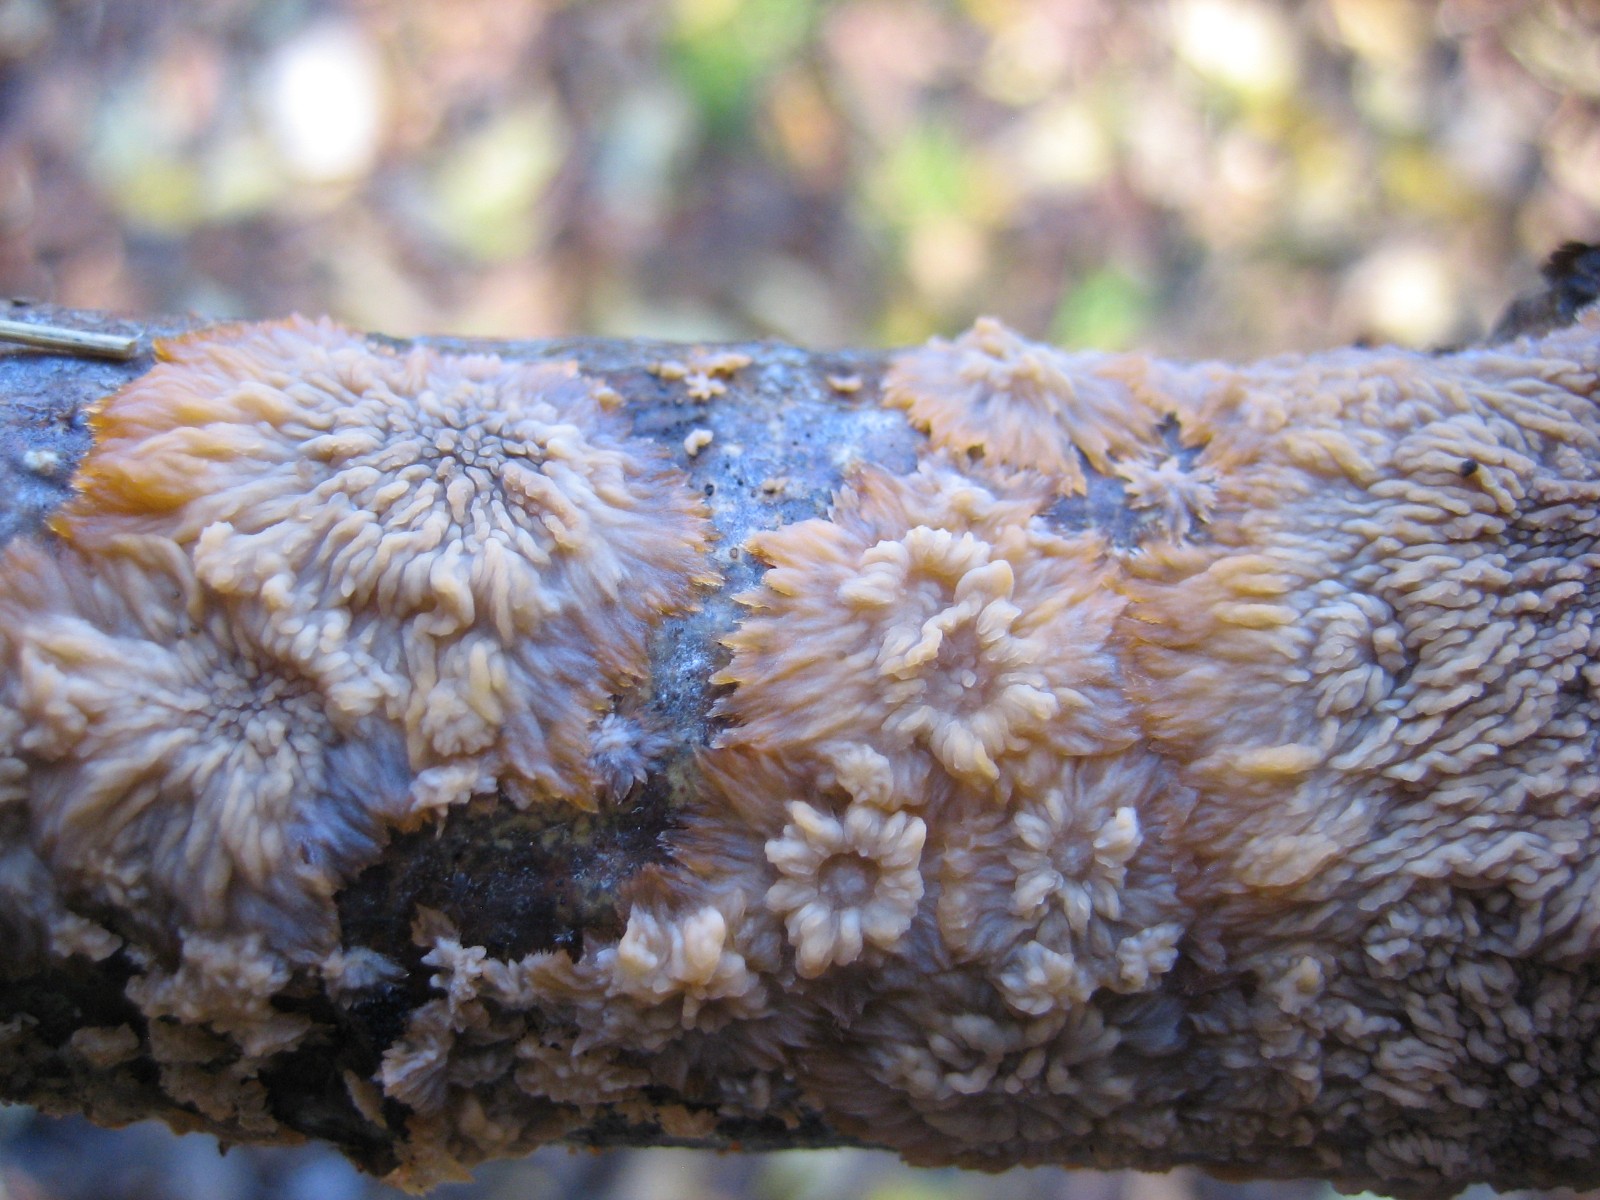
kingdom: Fungi
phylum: Basidiomycota
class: Agaricomycetes
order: Polyporales
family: Meruliaceae
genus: Phlebia
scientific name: Phlebia radiata
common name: stråle-åresvamp
